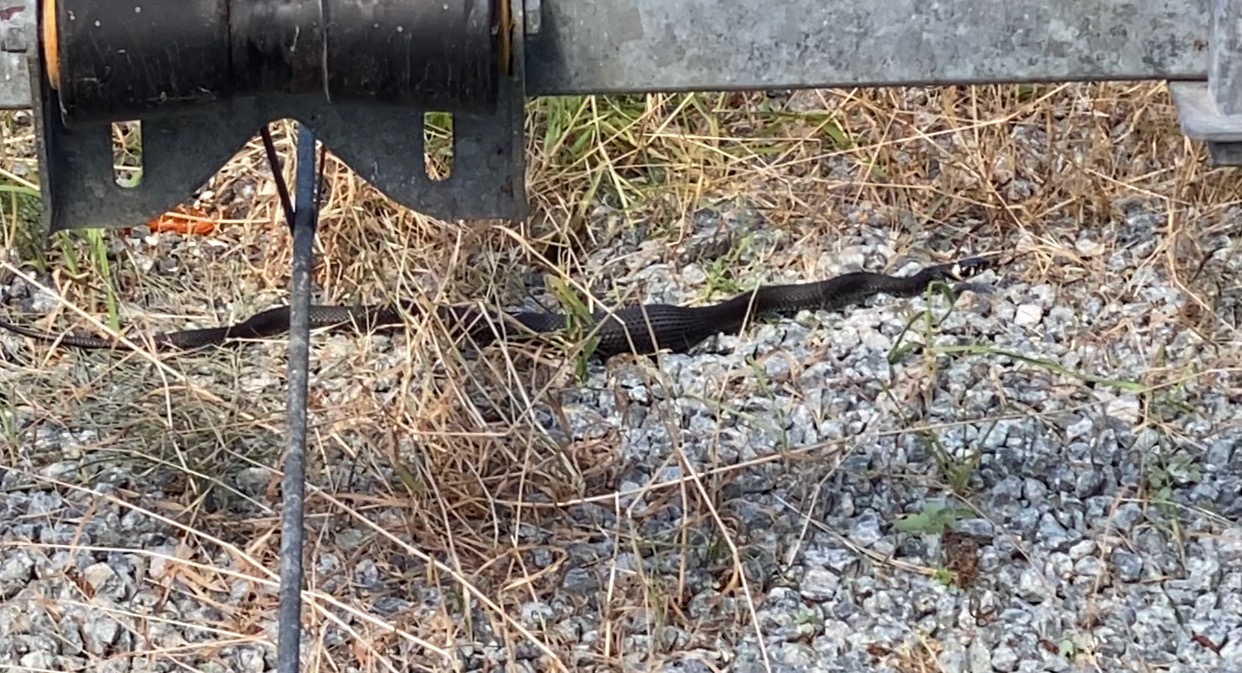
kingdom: Animalia
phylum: Chordata
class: Squamata
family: Colubridae
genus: Natrix
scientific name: Natrix natrix
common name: Snog
